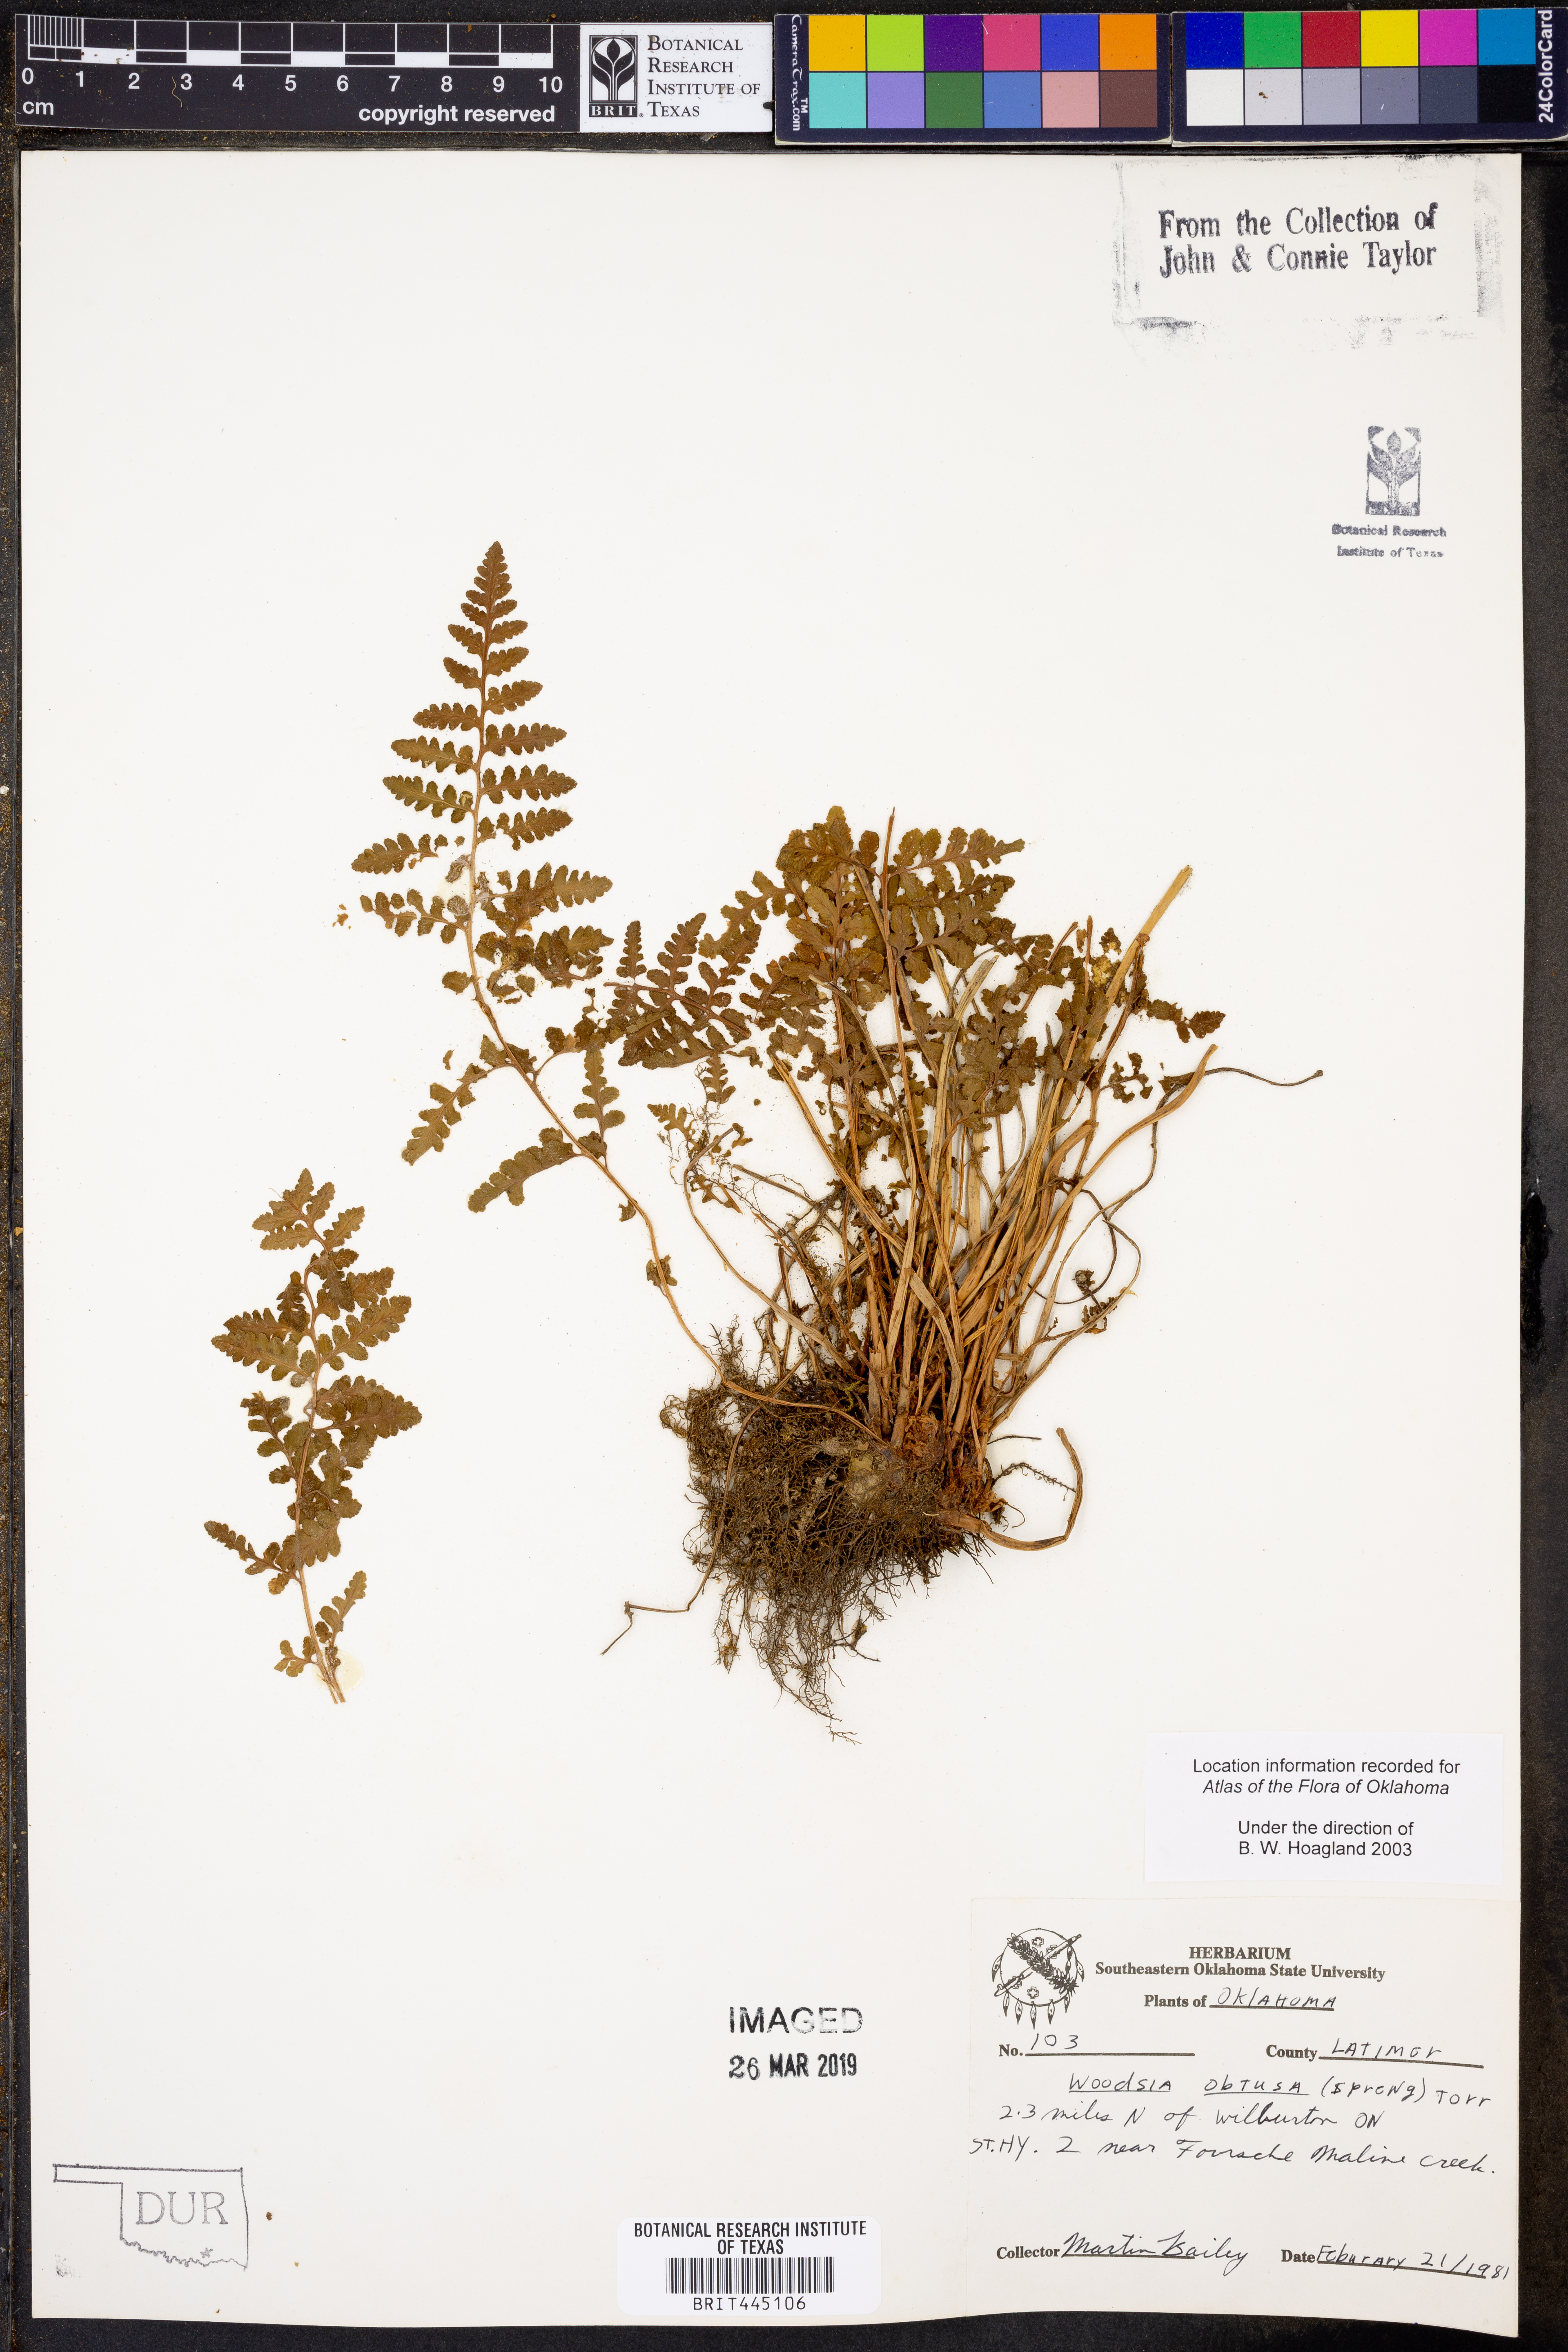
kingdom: Plantae
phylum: Tracheophyta
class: Polypodiopsida
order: Polypodiales
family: Woodsiaceae
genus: Physematium
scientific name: Physematium obtusum
